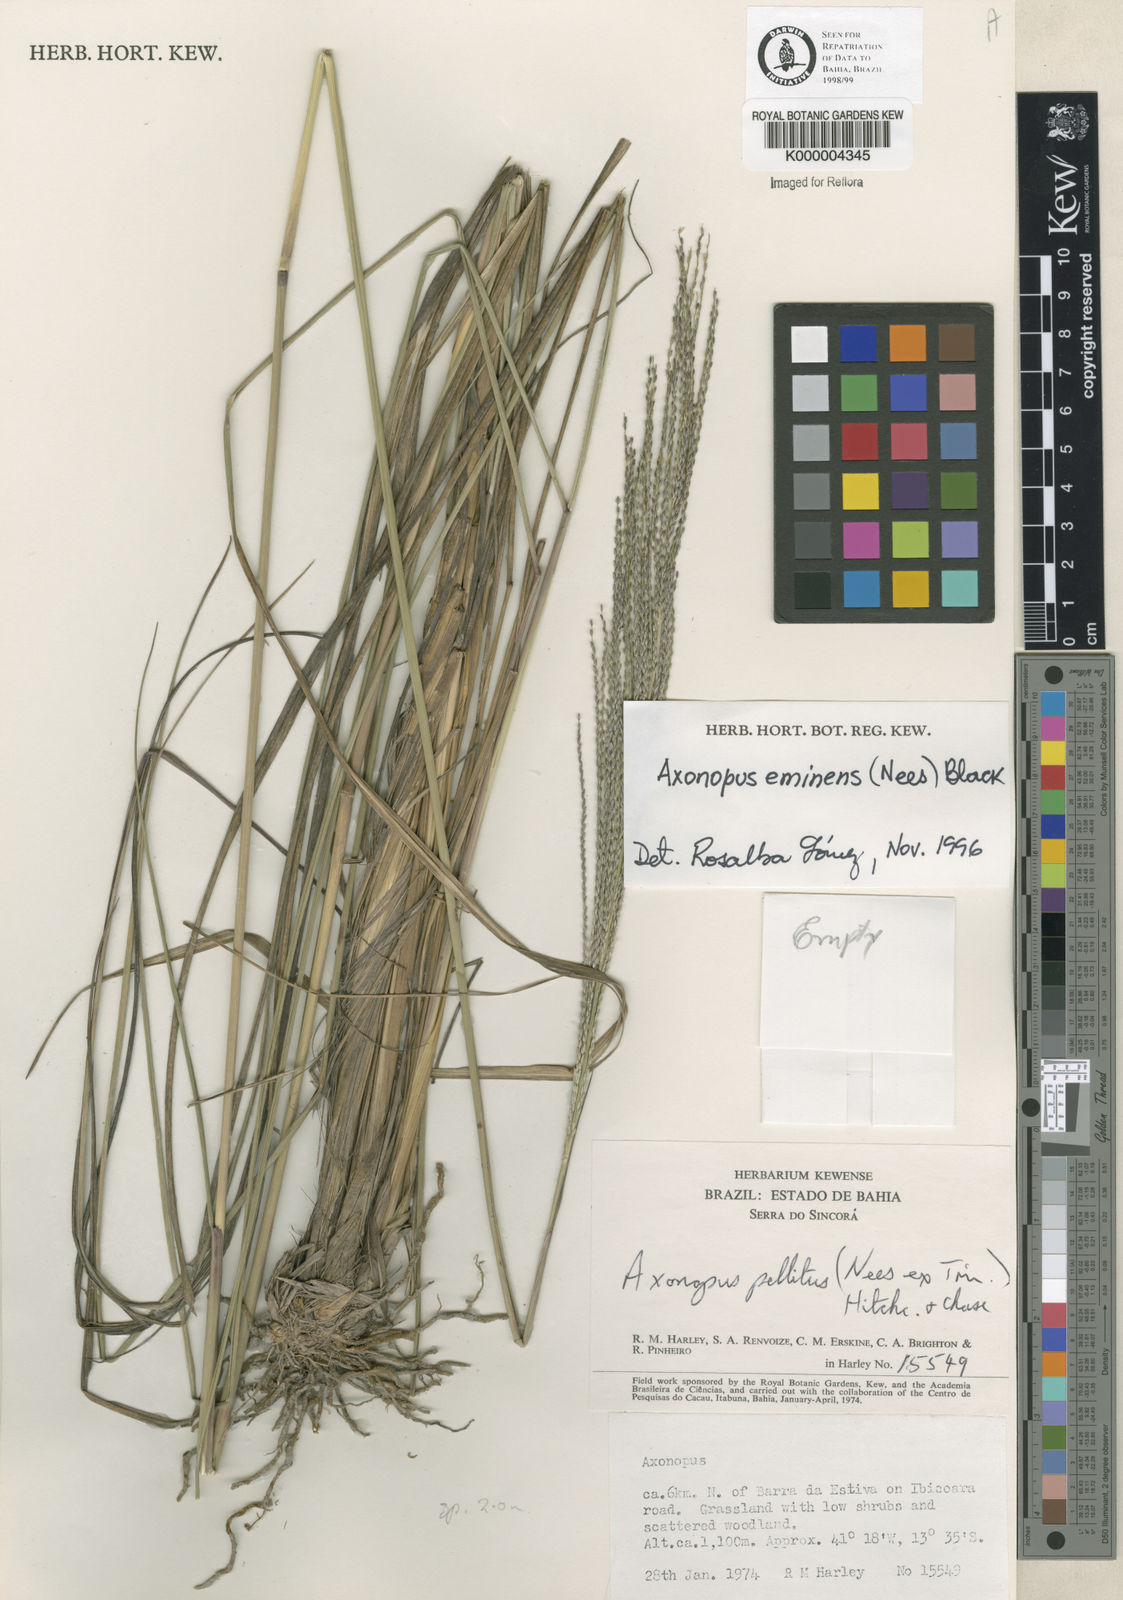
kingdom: Plantae
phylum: Tracheophyta
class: Liliopsida
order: Poales
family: Poaceae
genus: Axonopus
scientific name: Axonopus eminens
